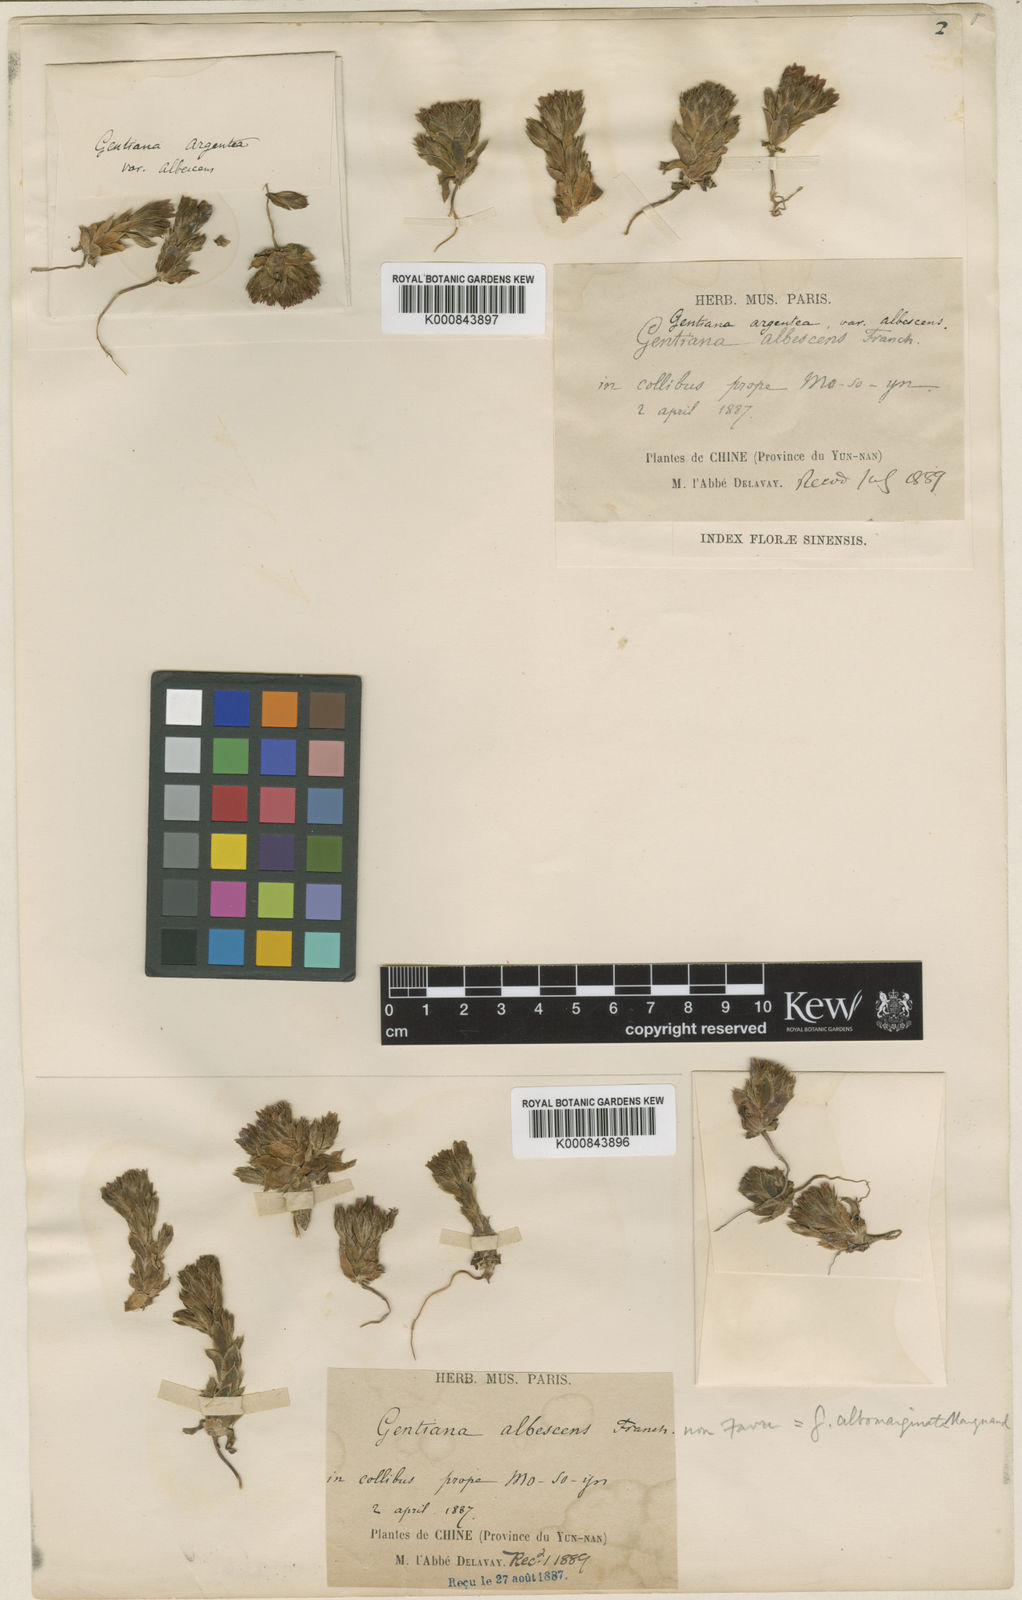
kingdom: Plantae
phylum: Tracheophyta
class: Magnoliopsida
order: Gentianales
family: Gentianaceae
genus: Gentiana
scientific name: Gentiana albomarginata
